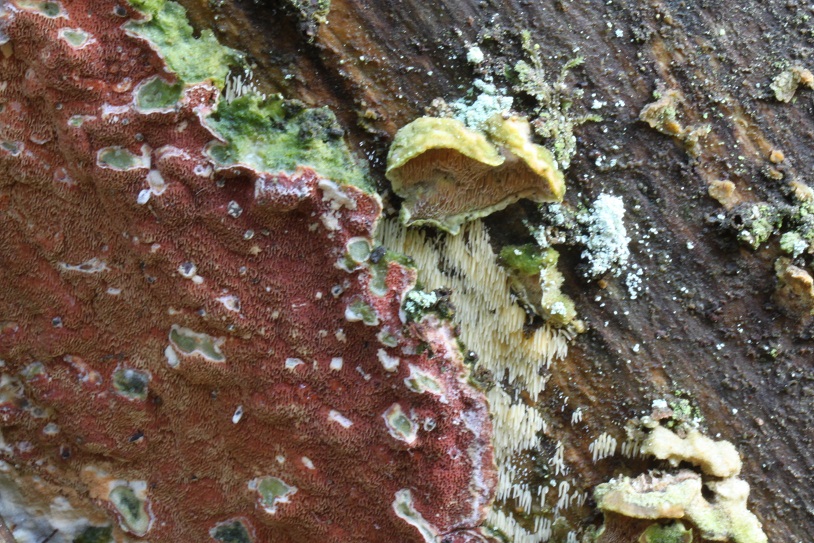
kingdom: Fungi
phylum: Basidiomycota
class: Agaricomycetes
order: Polyporales
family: Irpicaceae
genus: Meruliopsis
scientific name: Meruliopsis taxicola
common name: purpurbrun foldporesvamp
